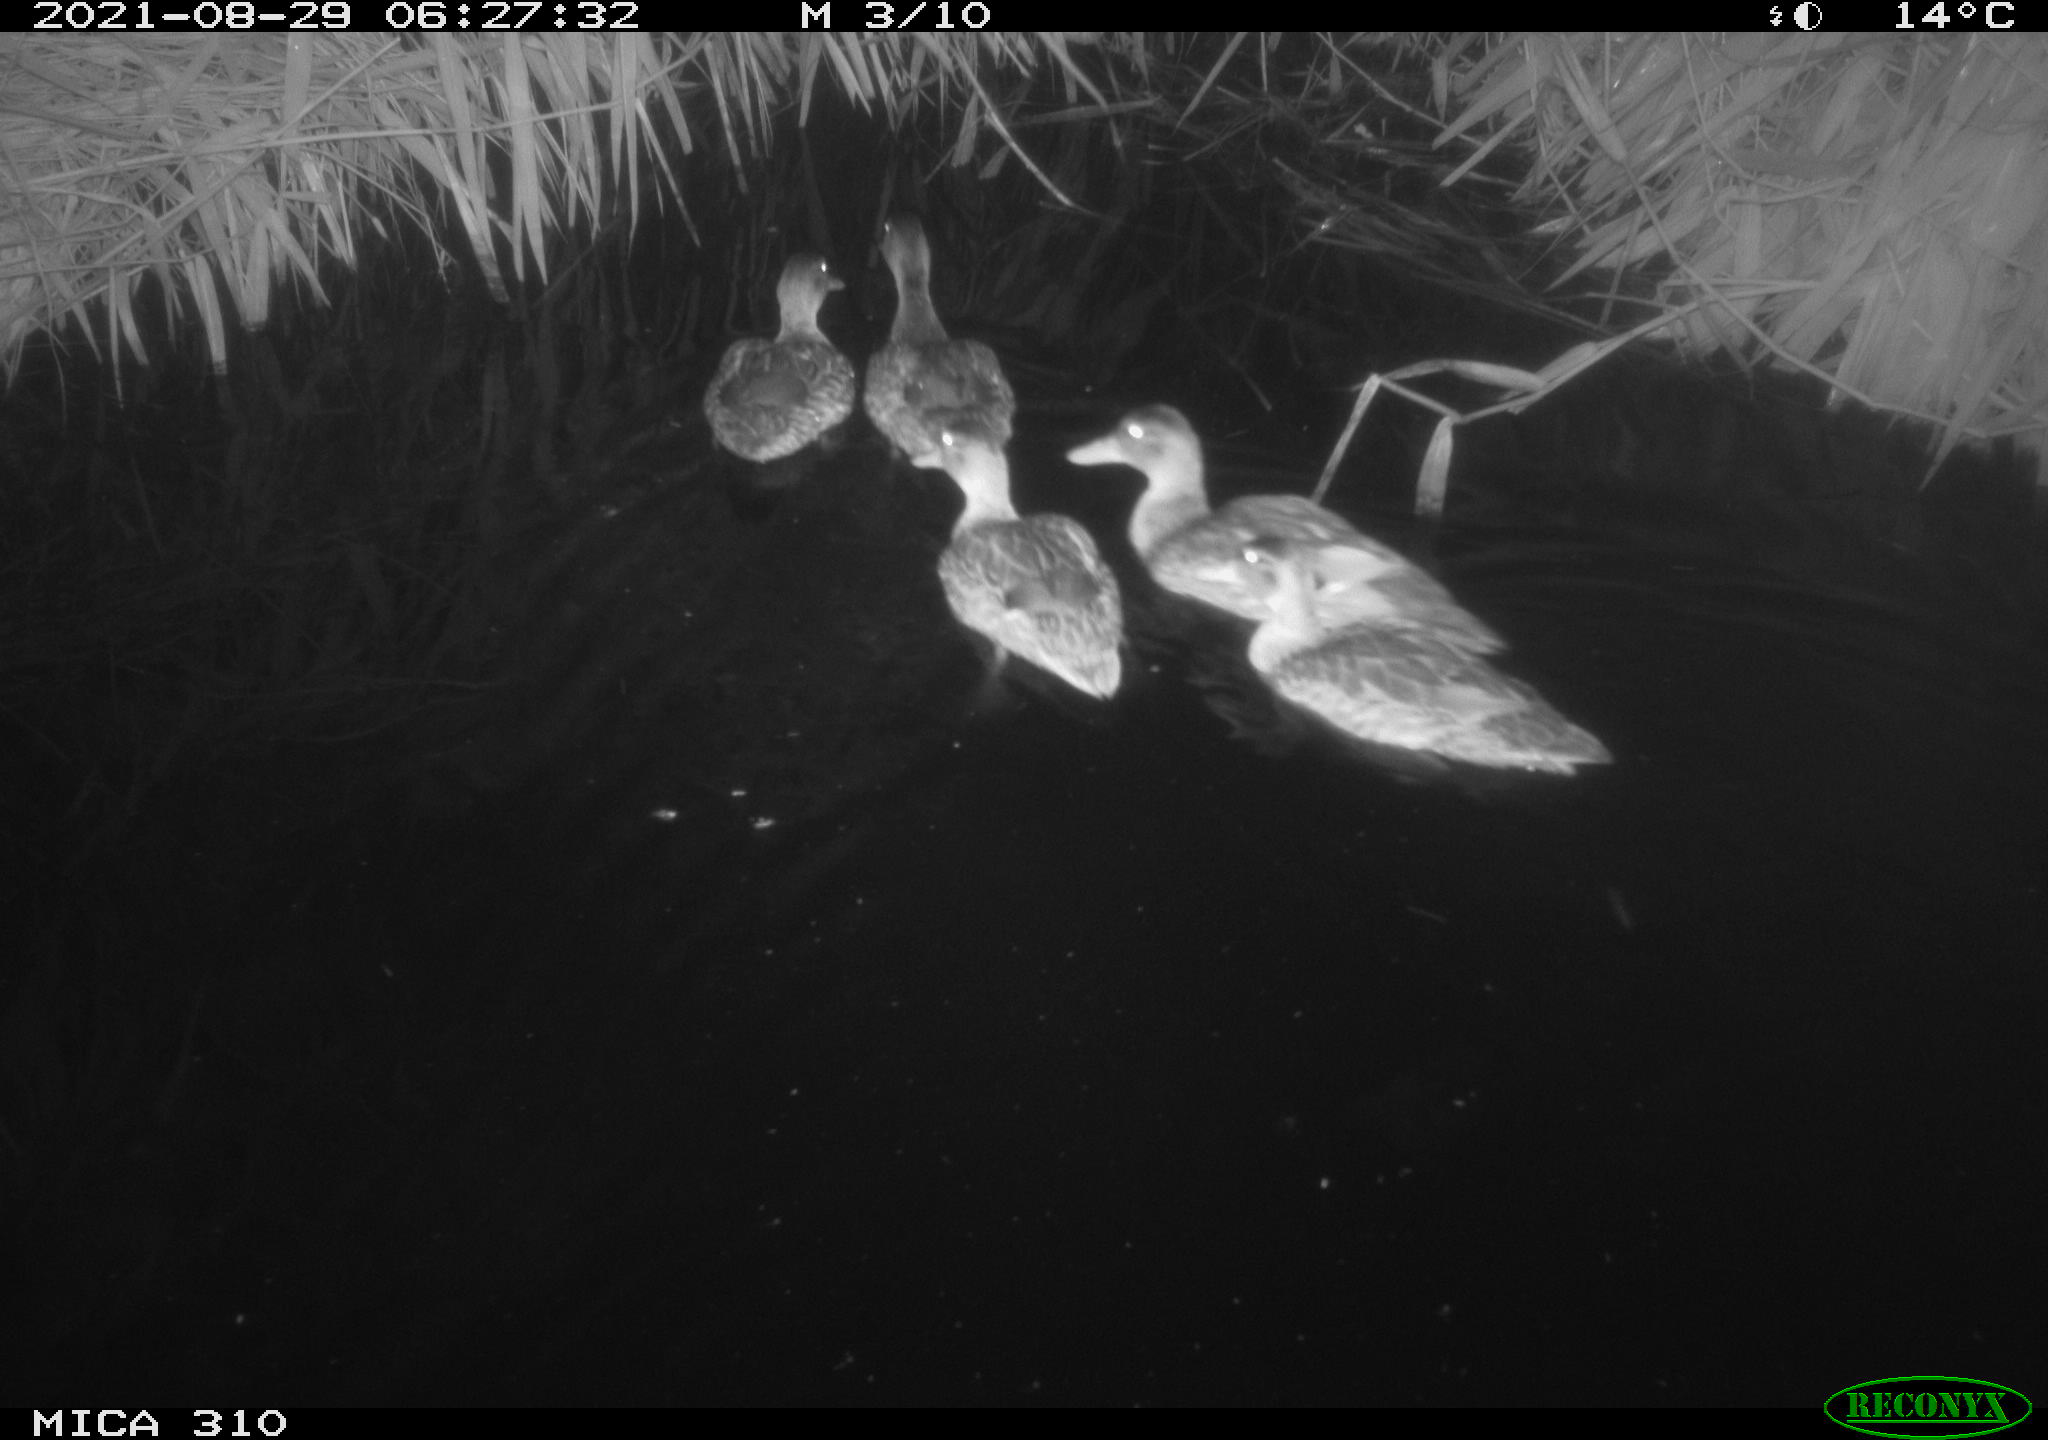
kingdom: Animalia
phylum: Chordata
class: Aves
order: Anseriformes
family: Anatidae
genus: Anas
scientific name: Anas platyrhynchos
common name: Mallard
